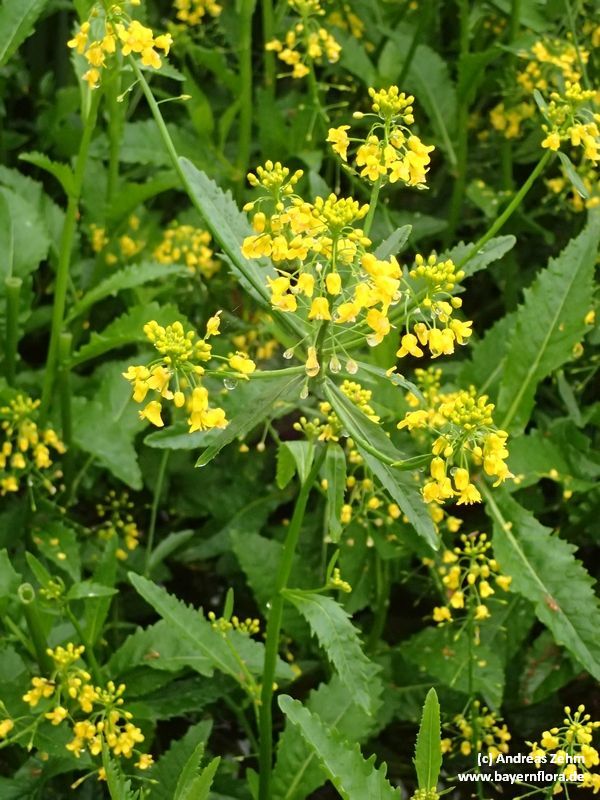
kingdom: Plantae
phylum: Tracheophyta
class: Magnoliopsida
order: Brassicales
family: Brassicaceae
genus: Rorippa
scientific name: Rorippa amphibia
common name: Great yellow-cress
